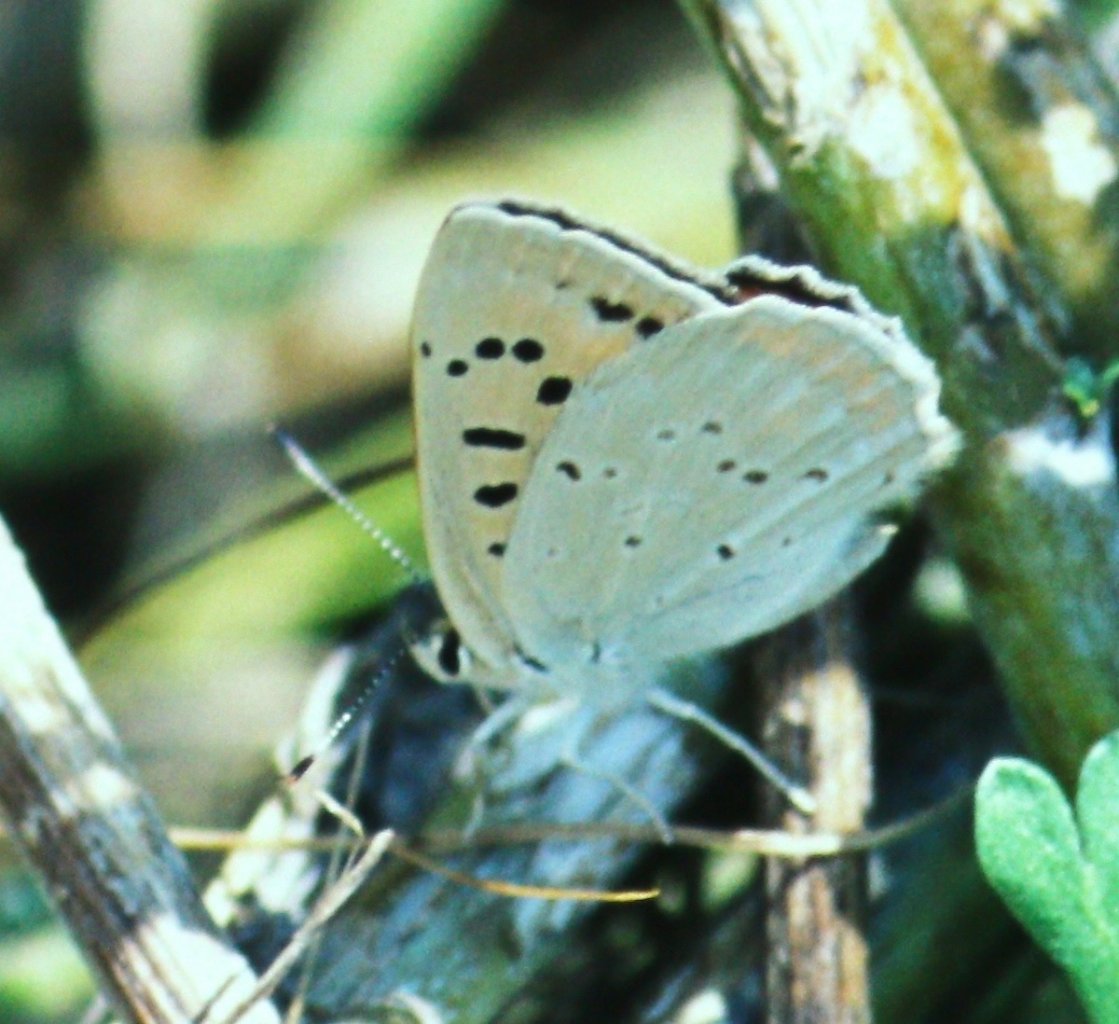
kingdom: Animalia
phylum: Arthropoda
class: Insecta
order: Lepidoptera
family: Sesiidae
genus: Sesia
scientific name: Sesia Lycaena rubidus
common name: Ruddy Copper
